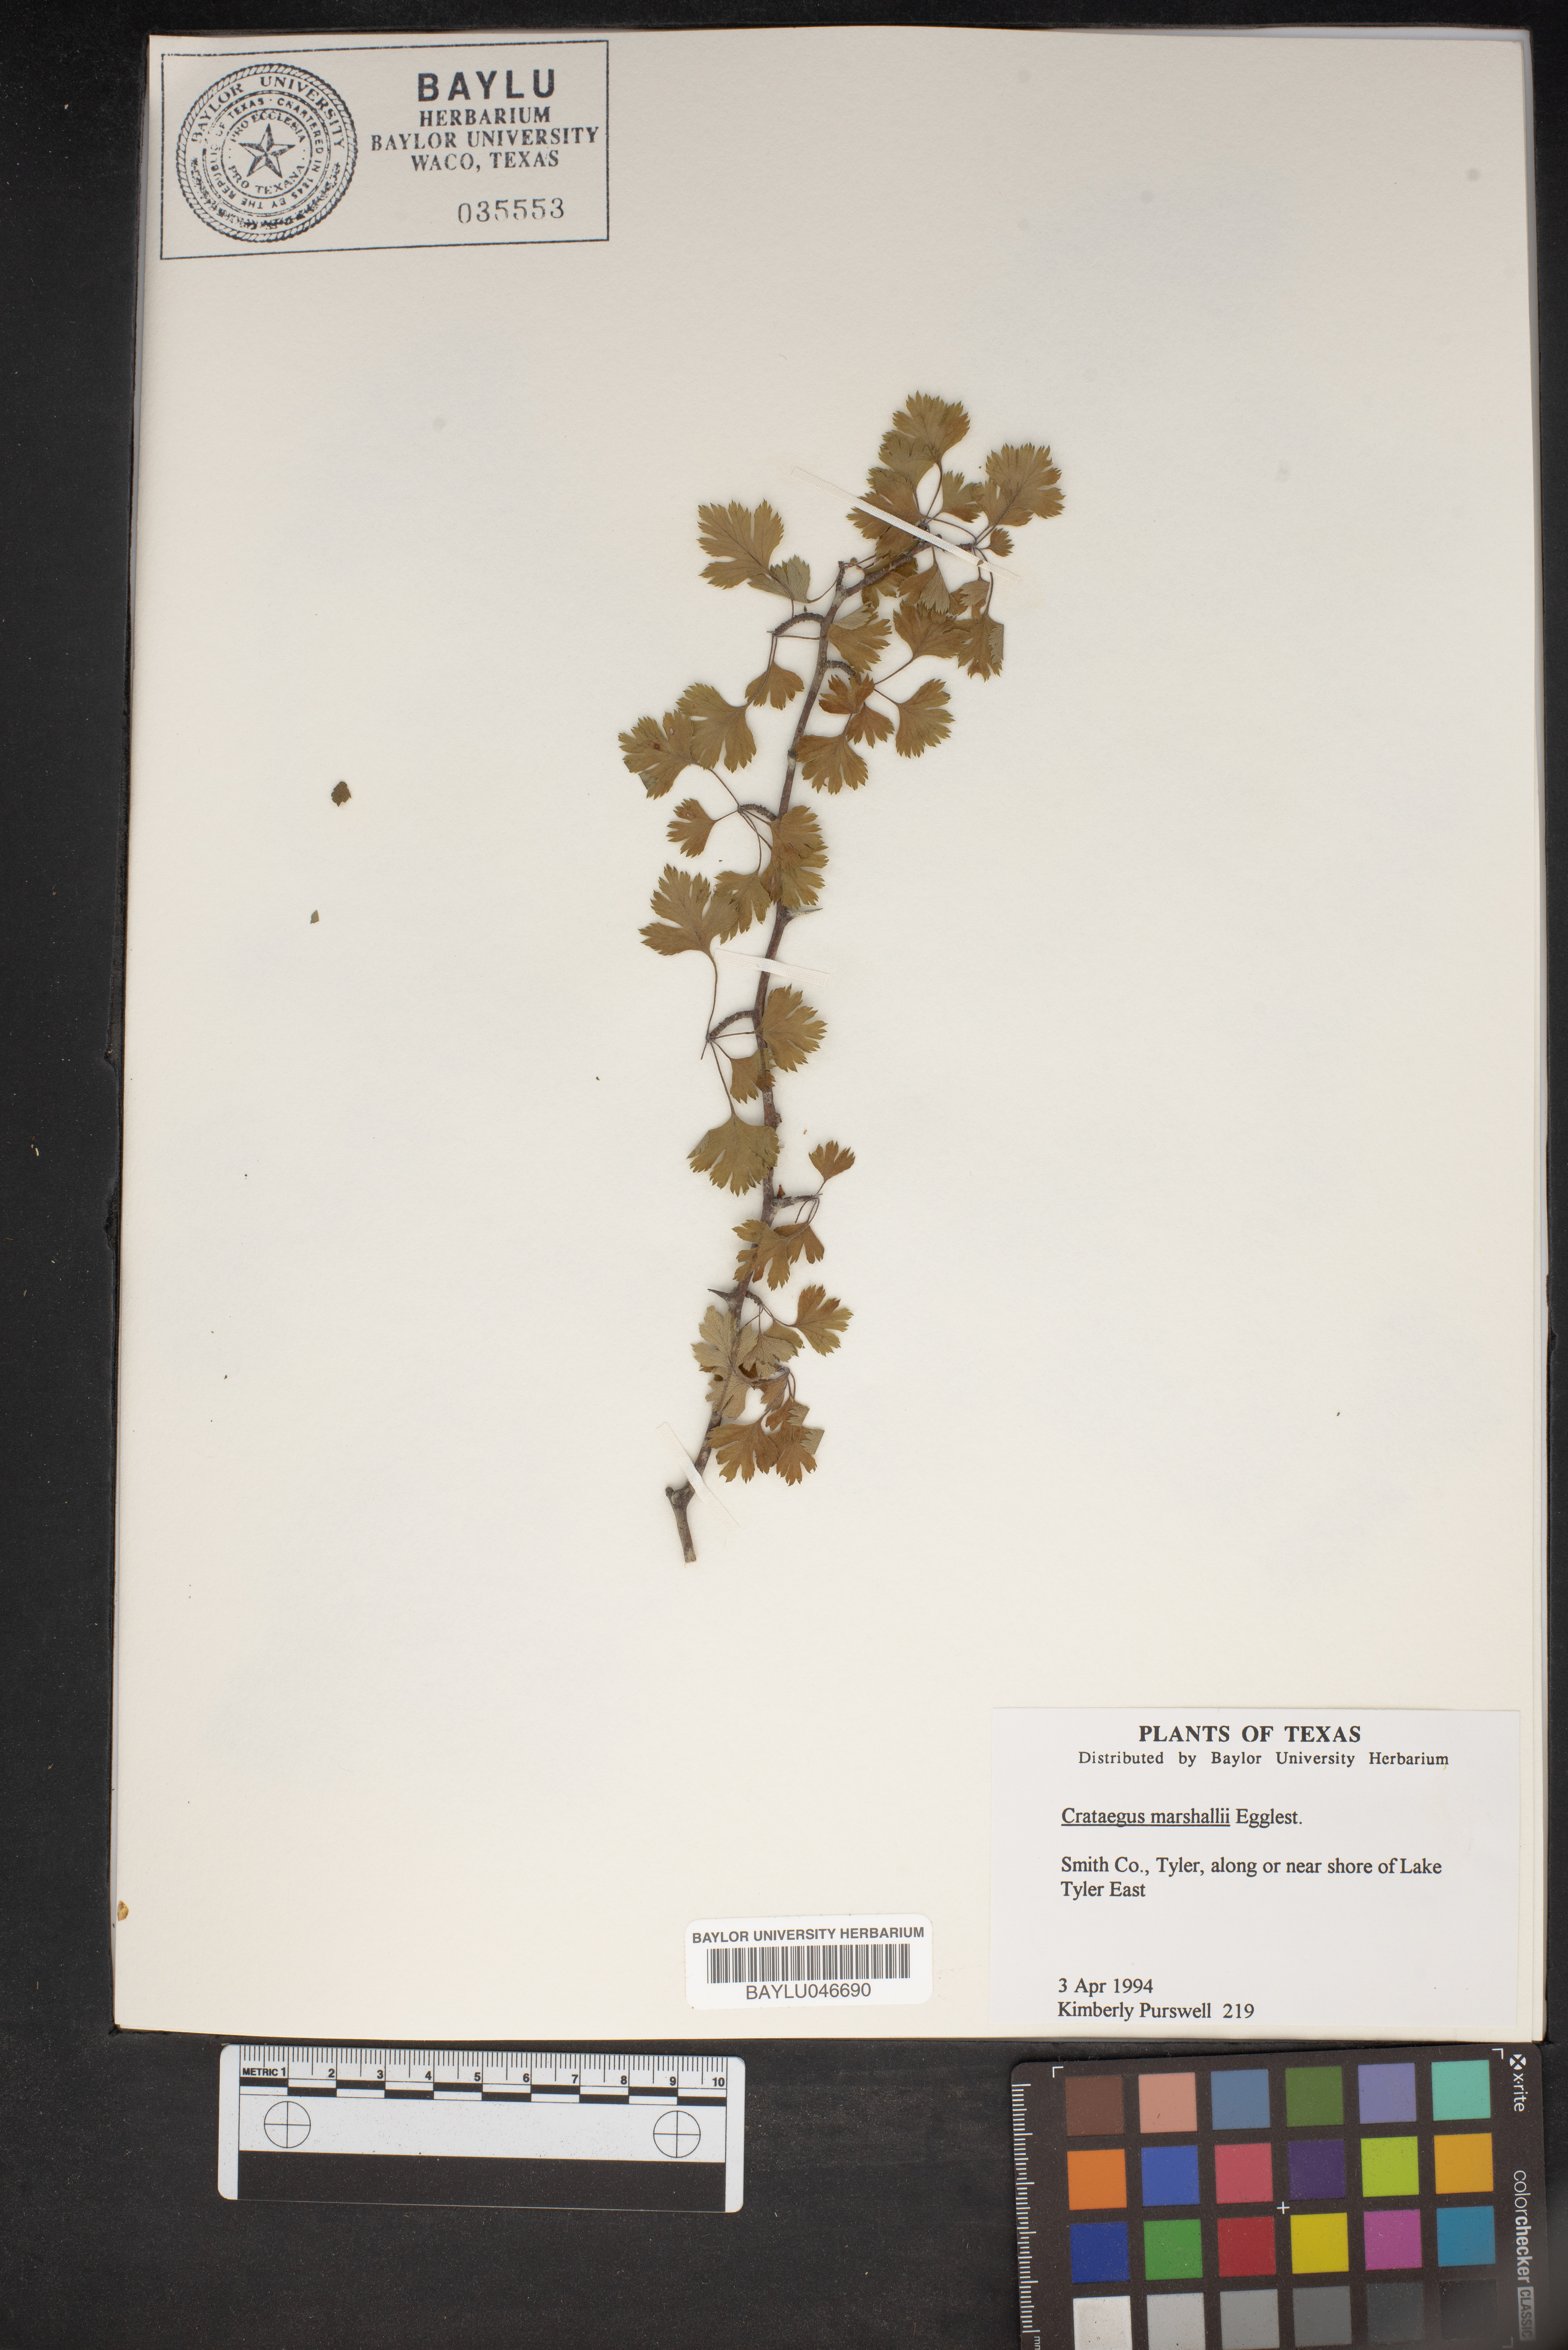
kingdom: Plantae
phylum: Tracheophyta
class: Magnoliopsida
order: Rosales
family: Rosaceae
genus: Crataegus
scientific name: Crataegus marshallii
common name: Parsley-hawthorn
